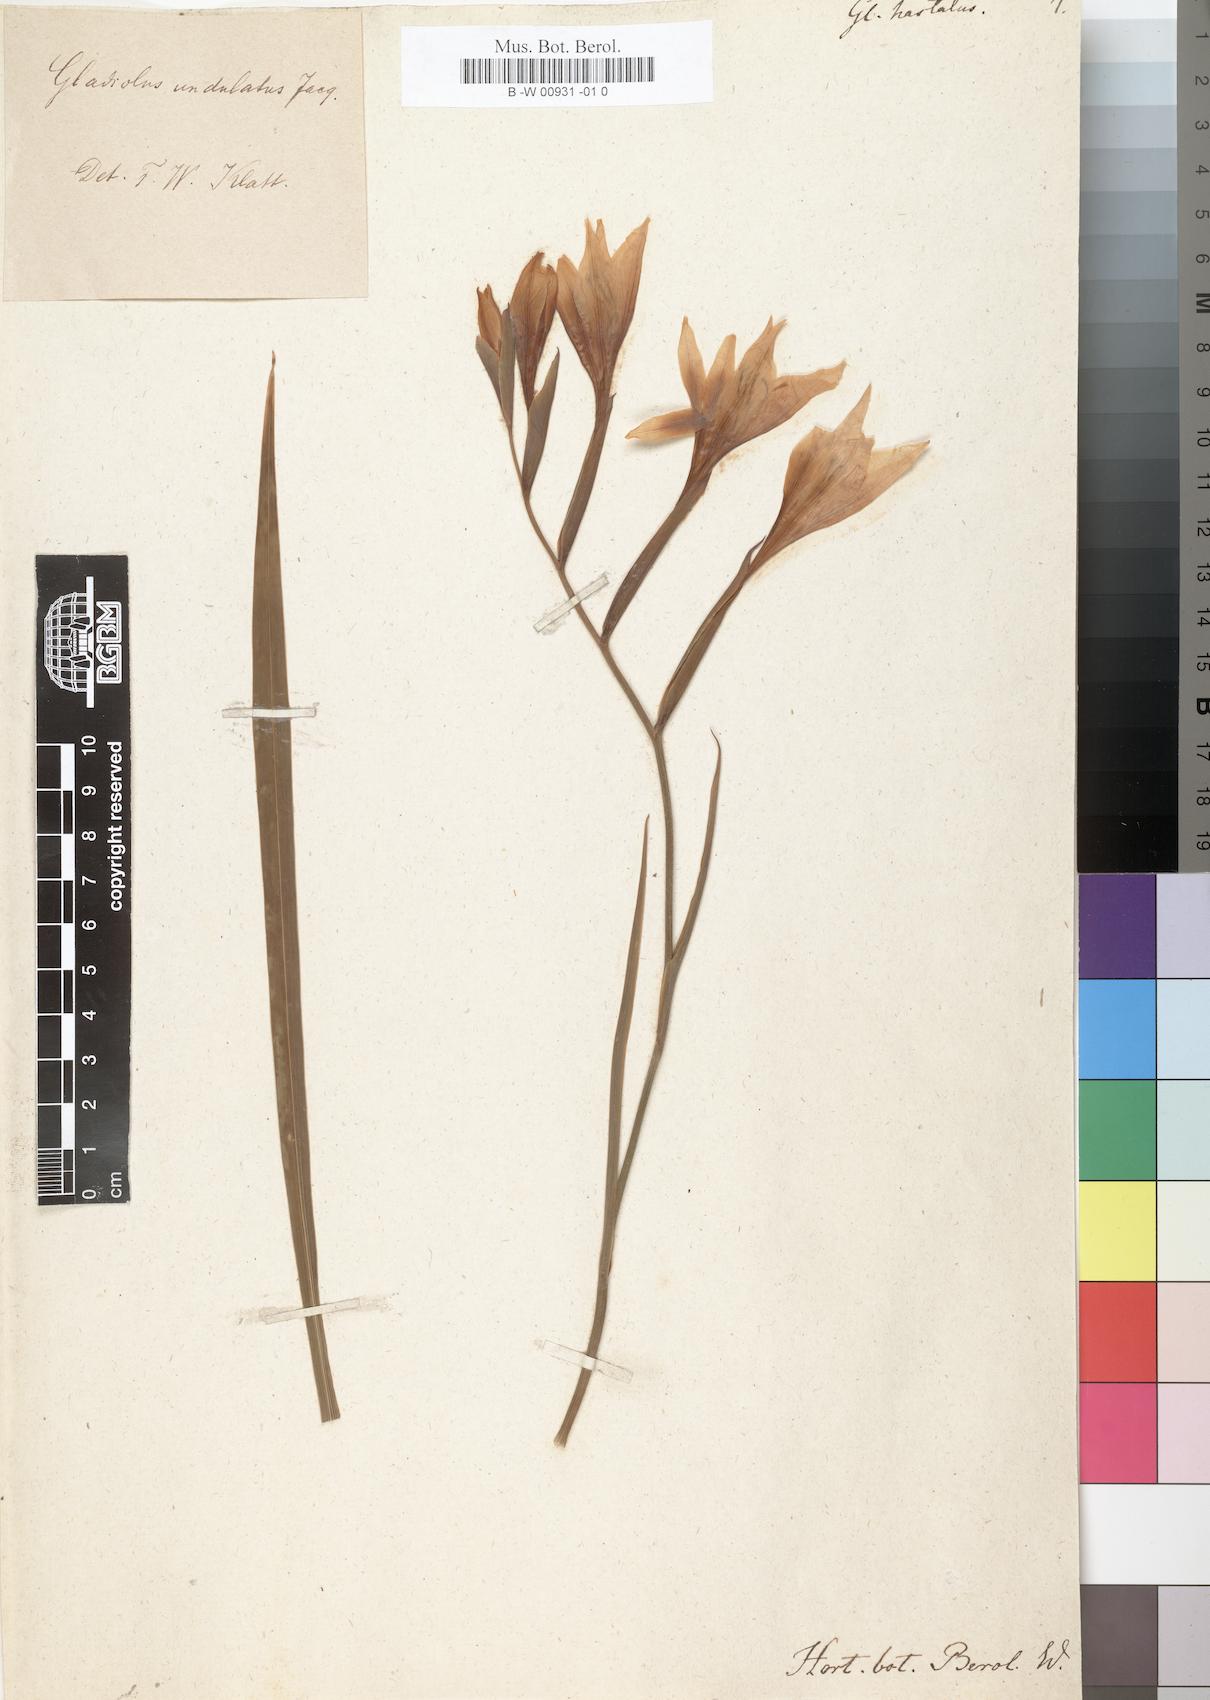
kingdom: Plantae
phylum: Tracheophyta
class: Liliopsida
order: Asparagales
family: Iridaceae
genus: Gladiolus
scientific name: Gladiolus inflatus
